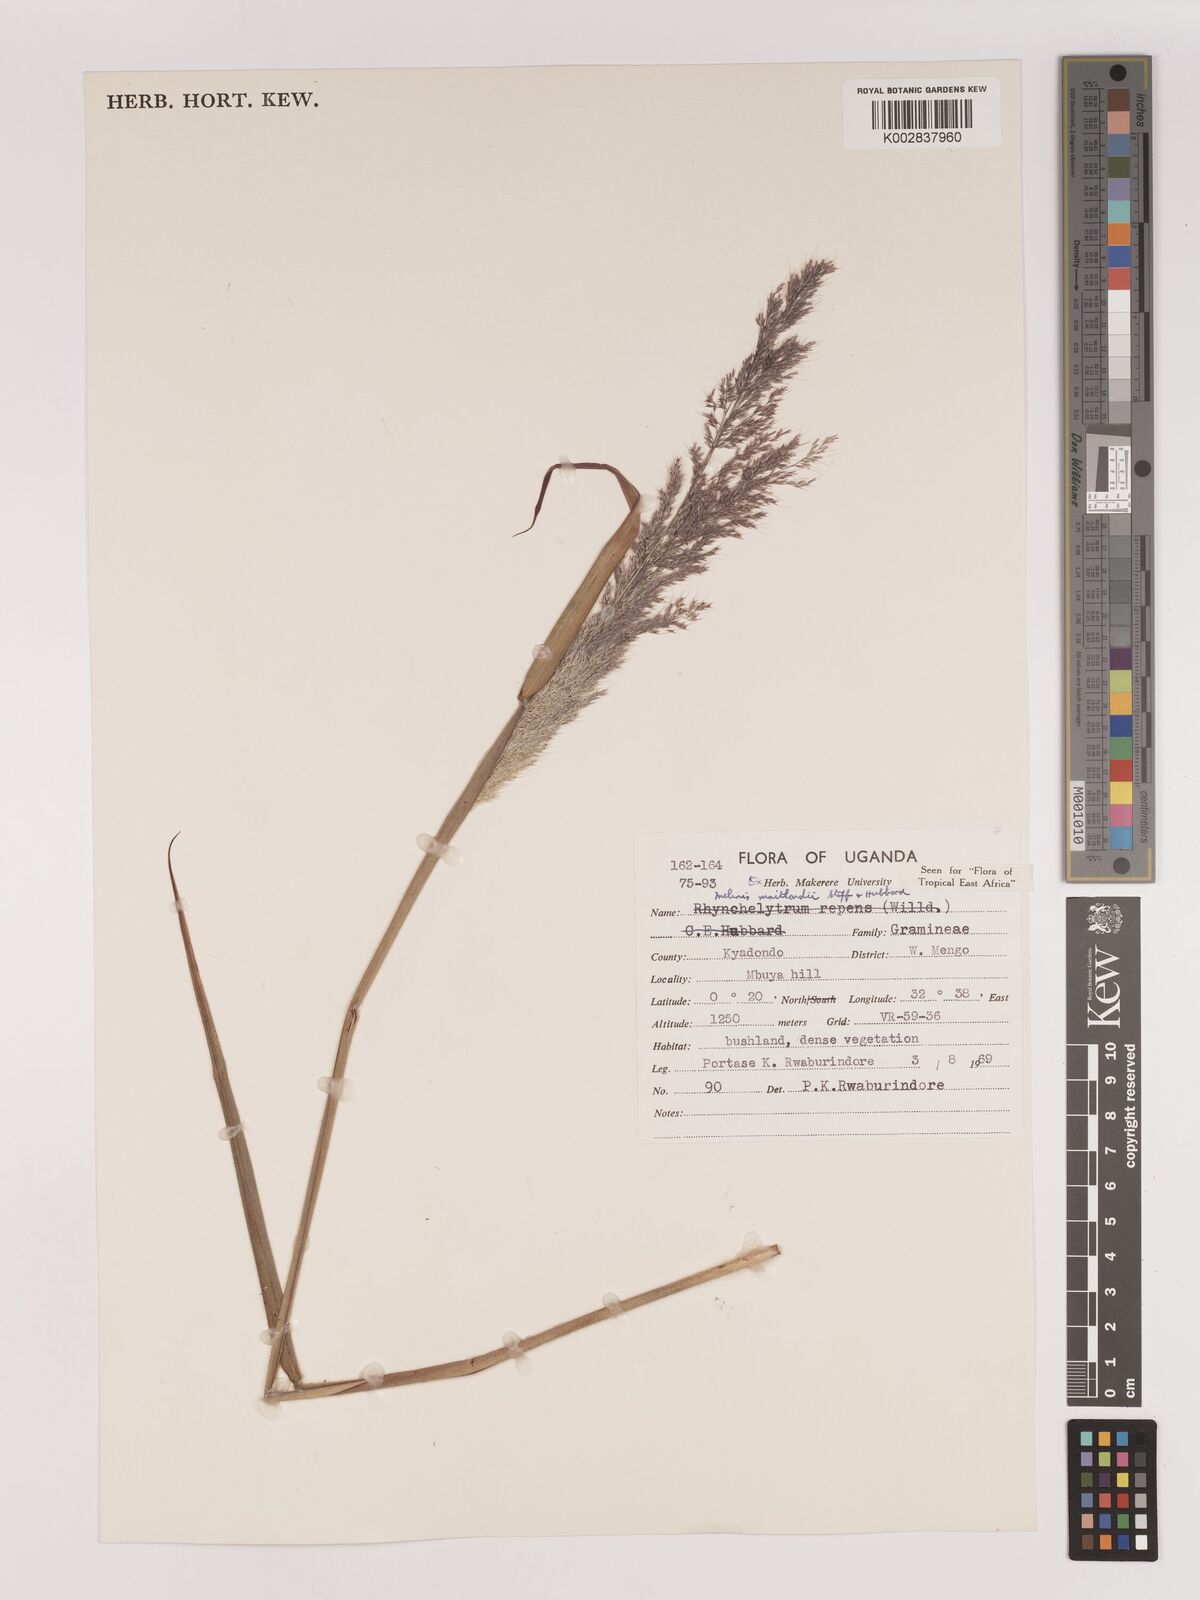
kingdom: Plantae
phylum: Tracheophyta
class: Liliopsida
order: Poales
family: Poaceae
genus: Melinis
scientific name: Melinis minutiflora
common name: Molassesgrass
